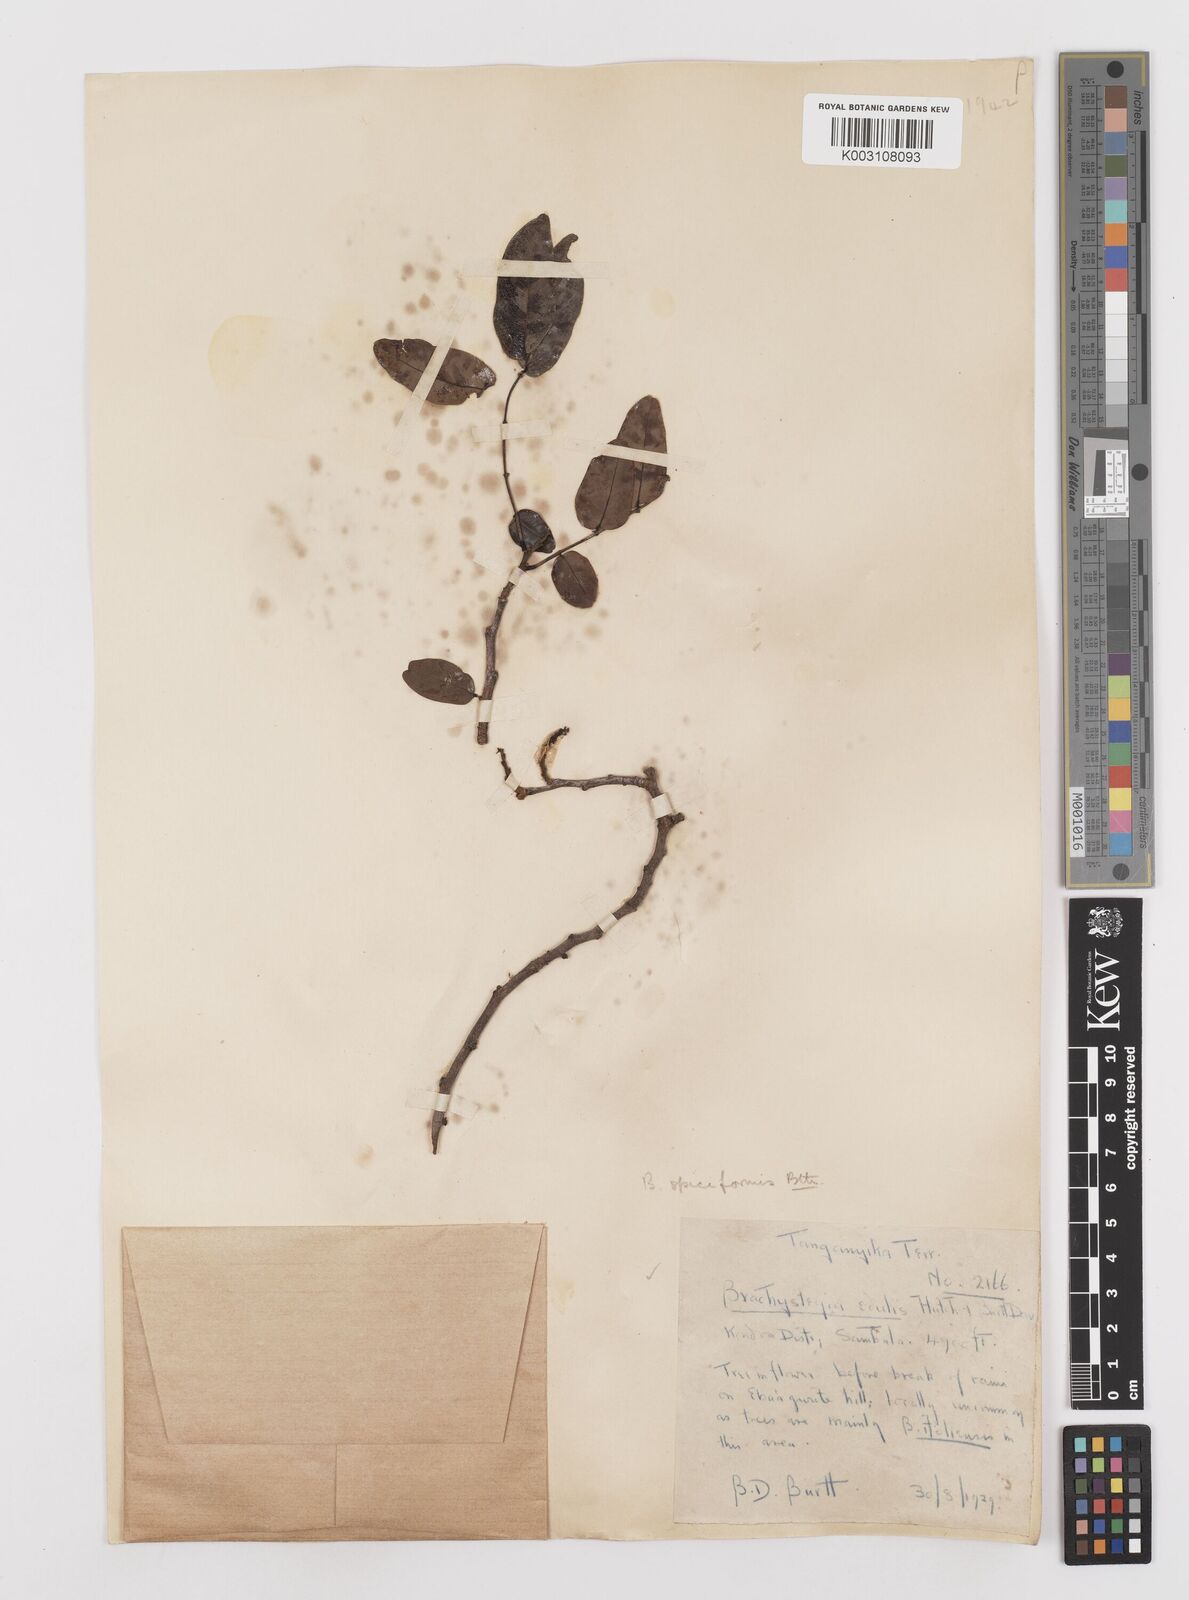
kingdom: Plantae
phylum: Tracheophyta
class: Magnoliopsida
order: Fabales
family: Fabaceae
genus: Brachystegia
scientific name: Brachystegia spiciformis
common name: Zebrawood
